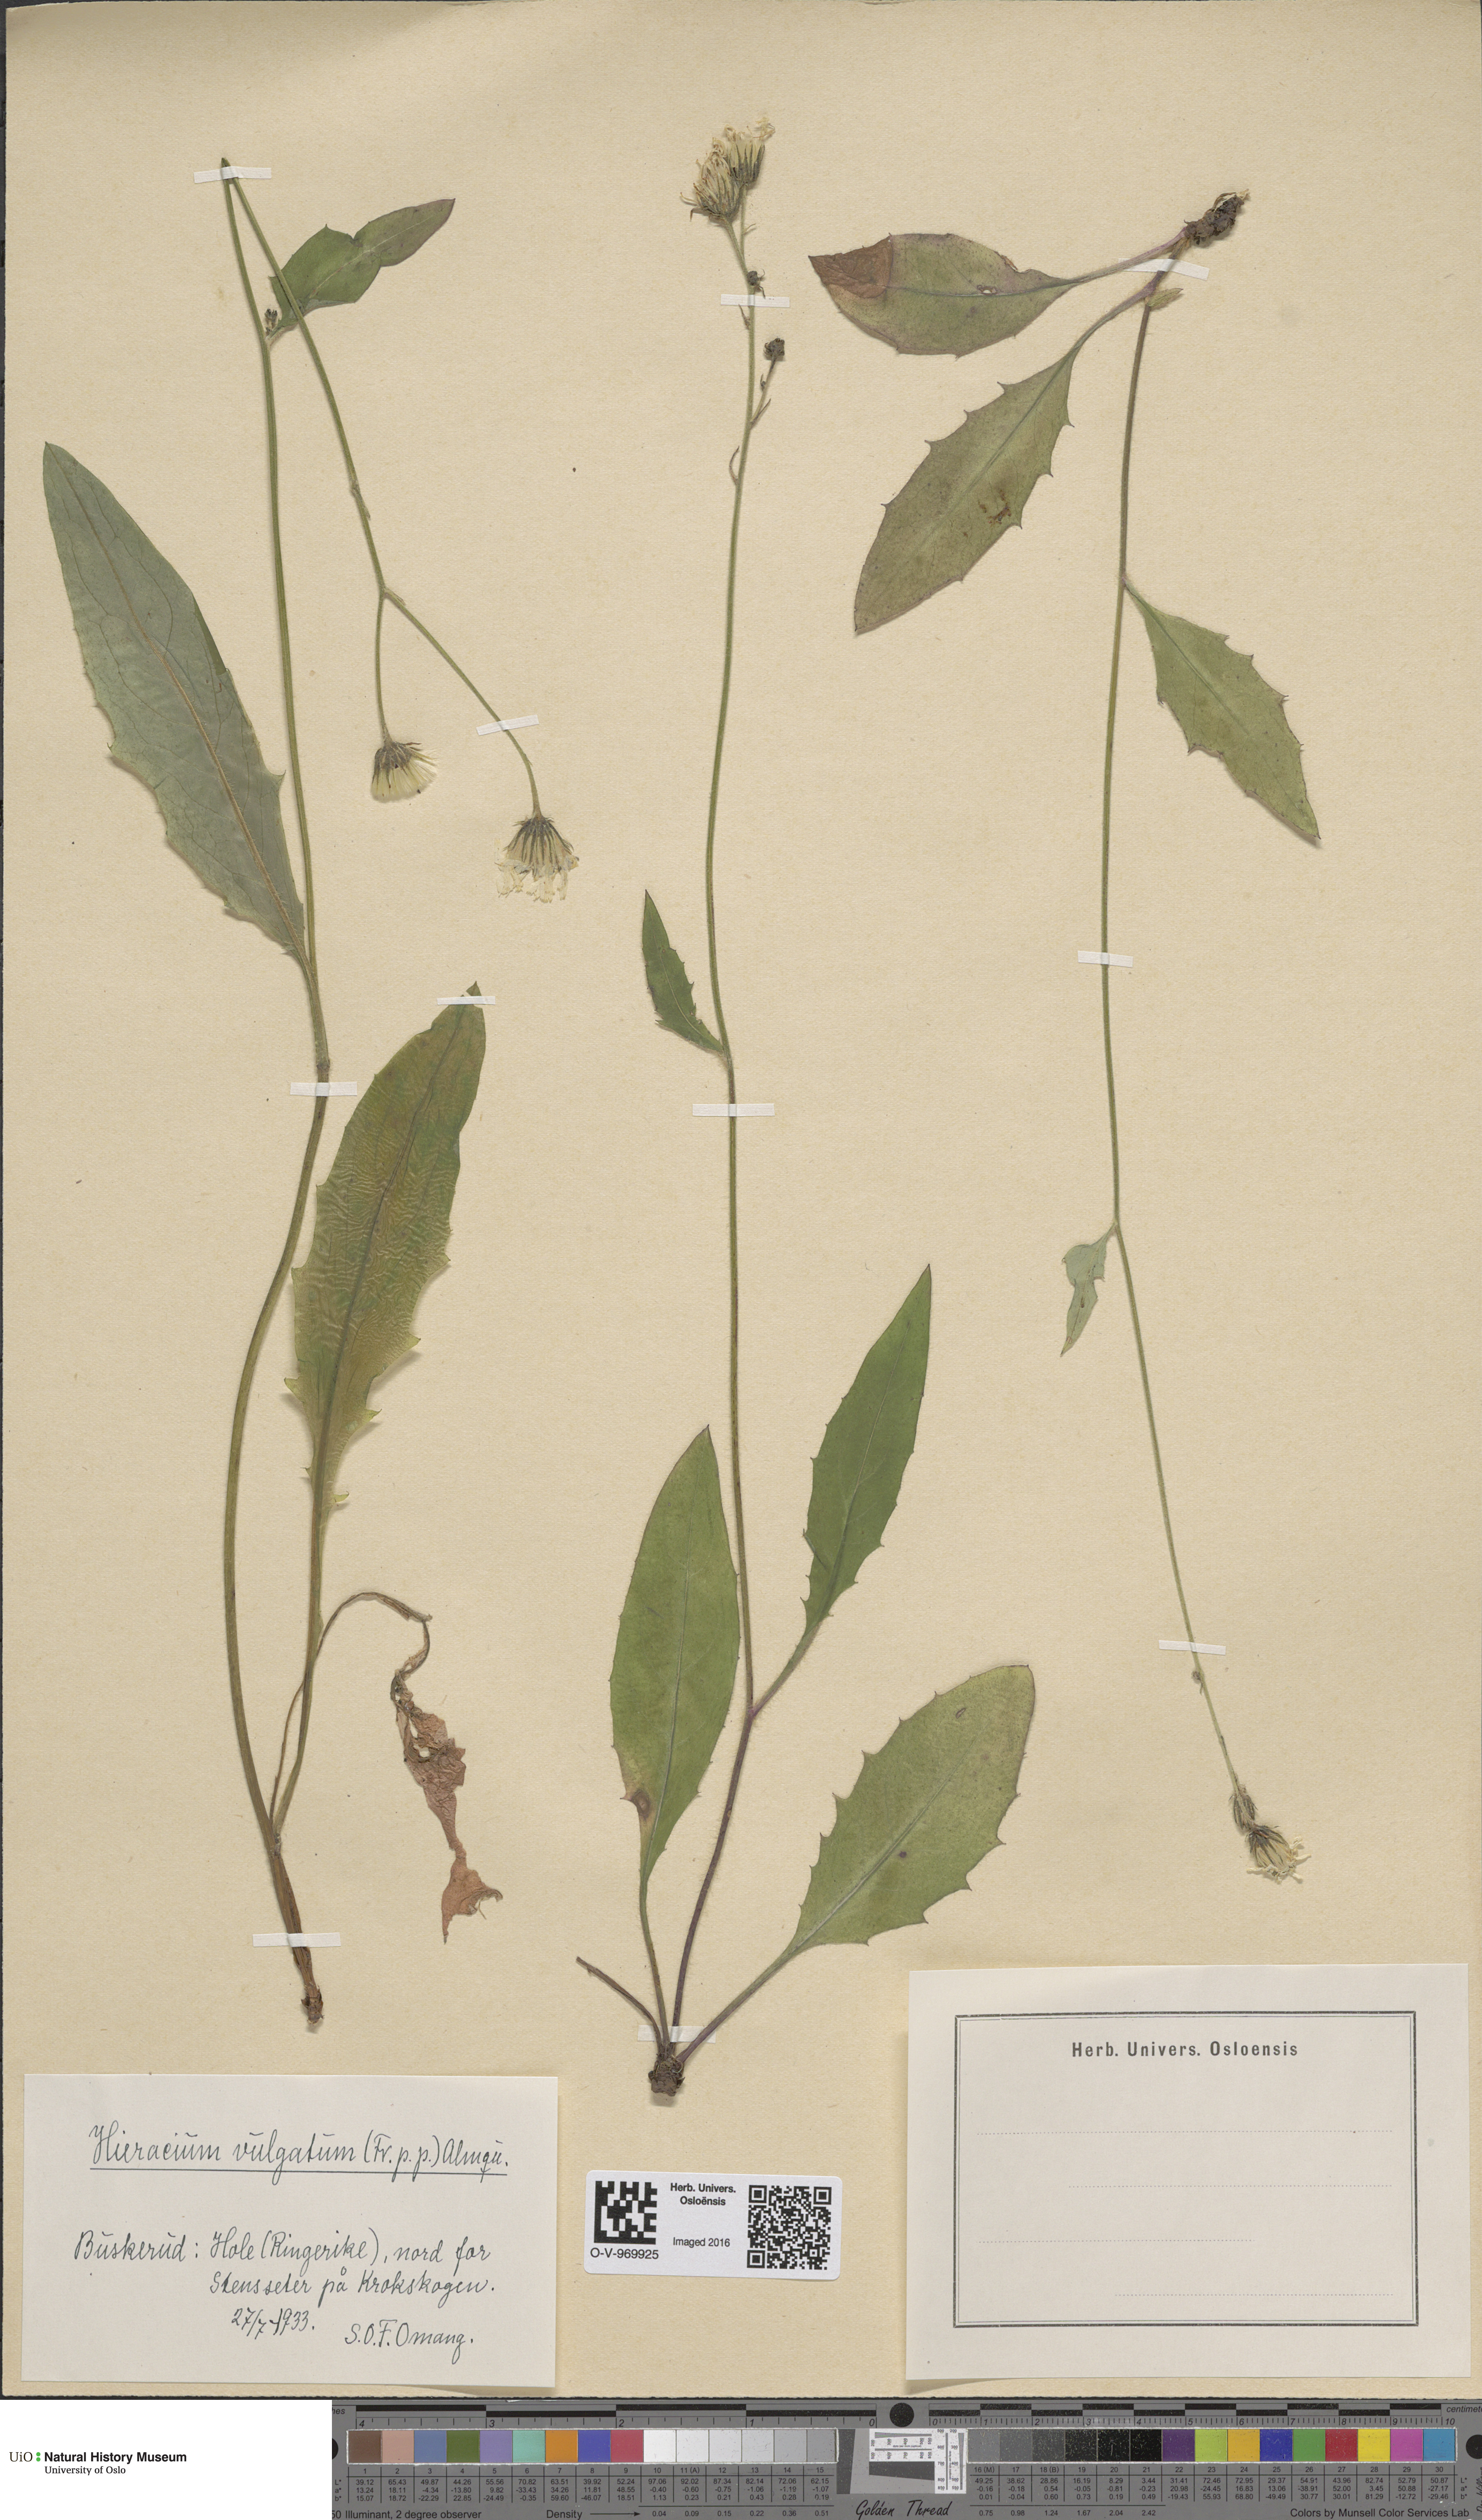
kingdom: Plantae
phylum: Tracheophyta
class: Magnoliopsida
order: Asterales
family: Asteraceae
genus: Hieracium
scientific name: Hieracium vulgatum
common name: Common hawkweed
